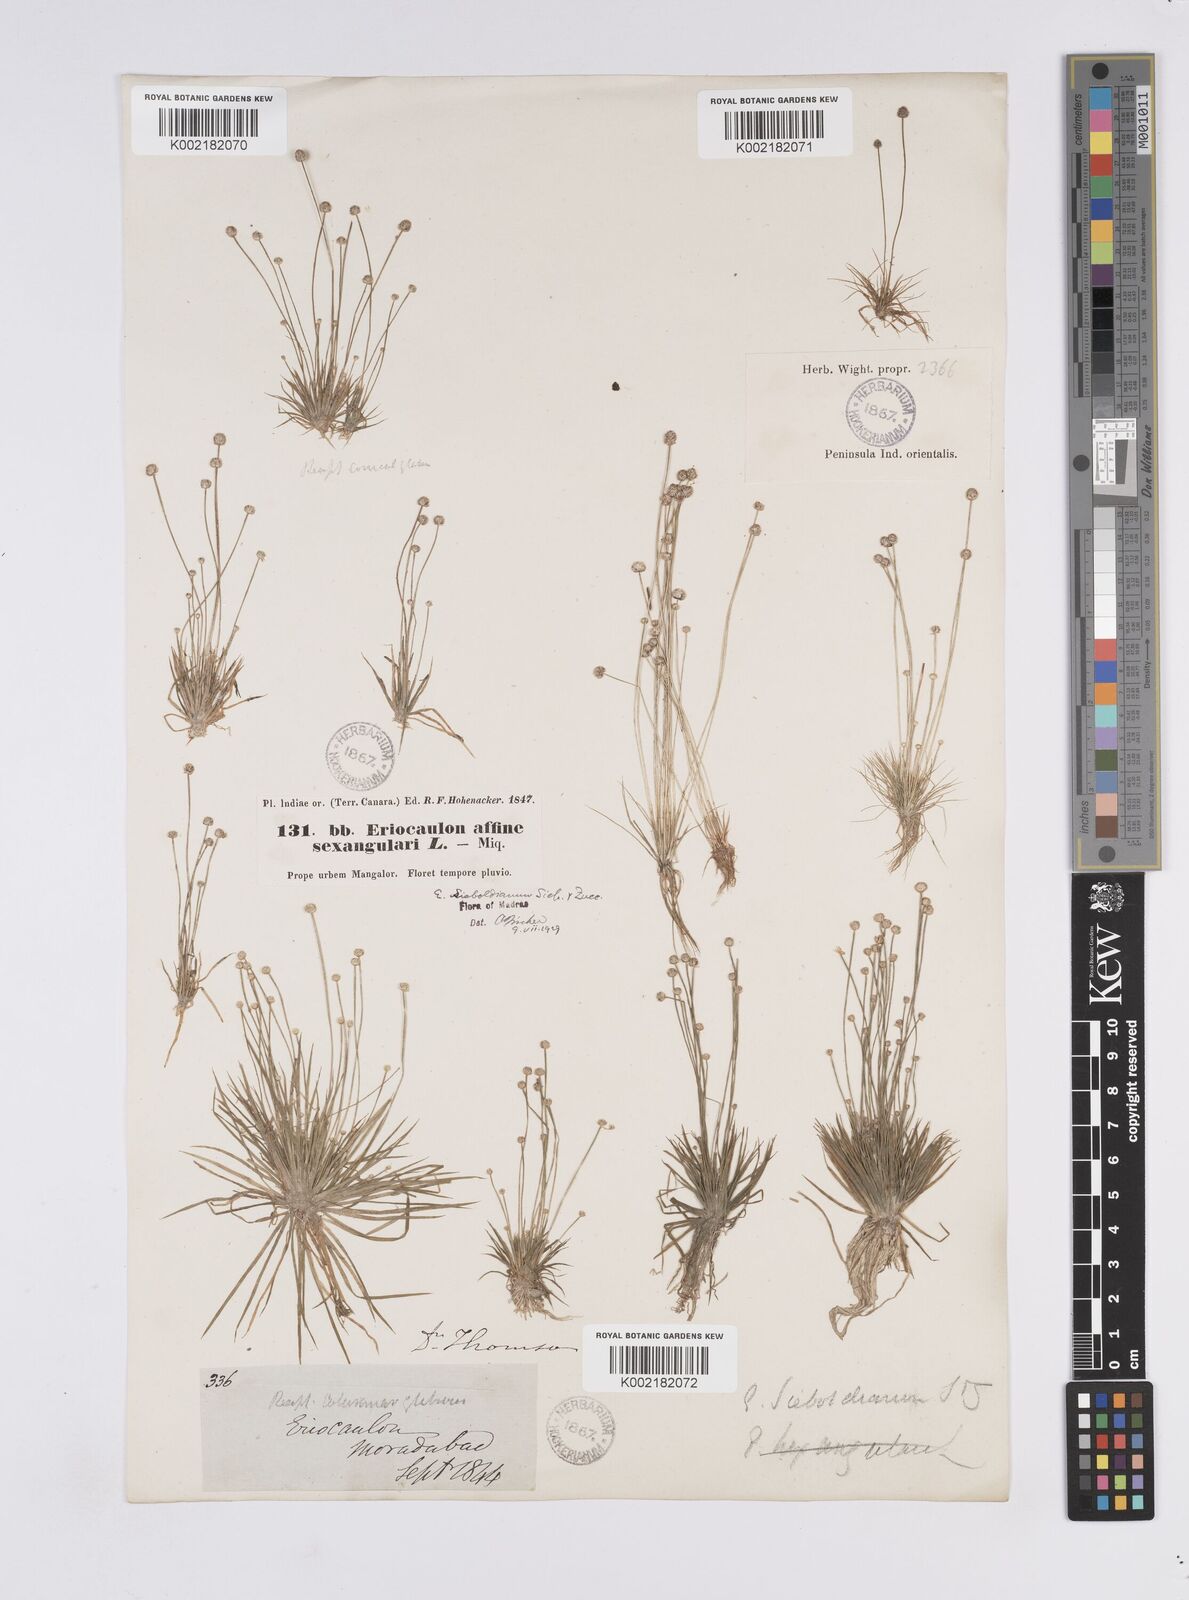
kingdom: Plantae
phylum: Tracheophyta
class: Liliopsida
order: Poales
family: Eriocaulaceae
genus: Eriocaulon
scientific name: Eriocaulon cinereum
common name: Ashy pipewort
